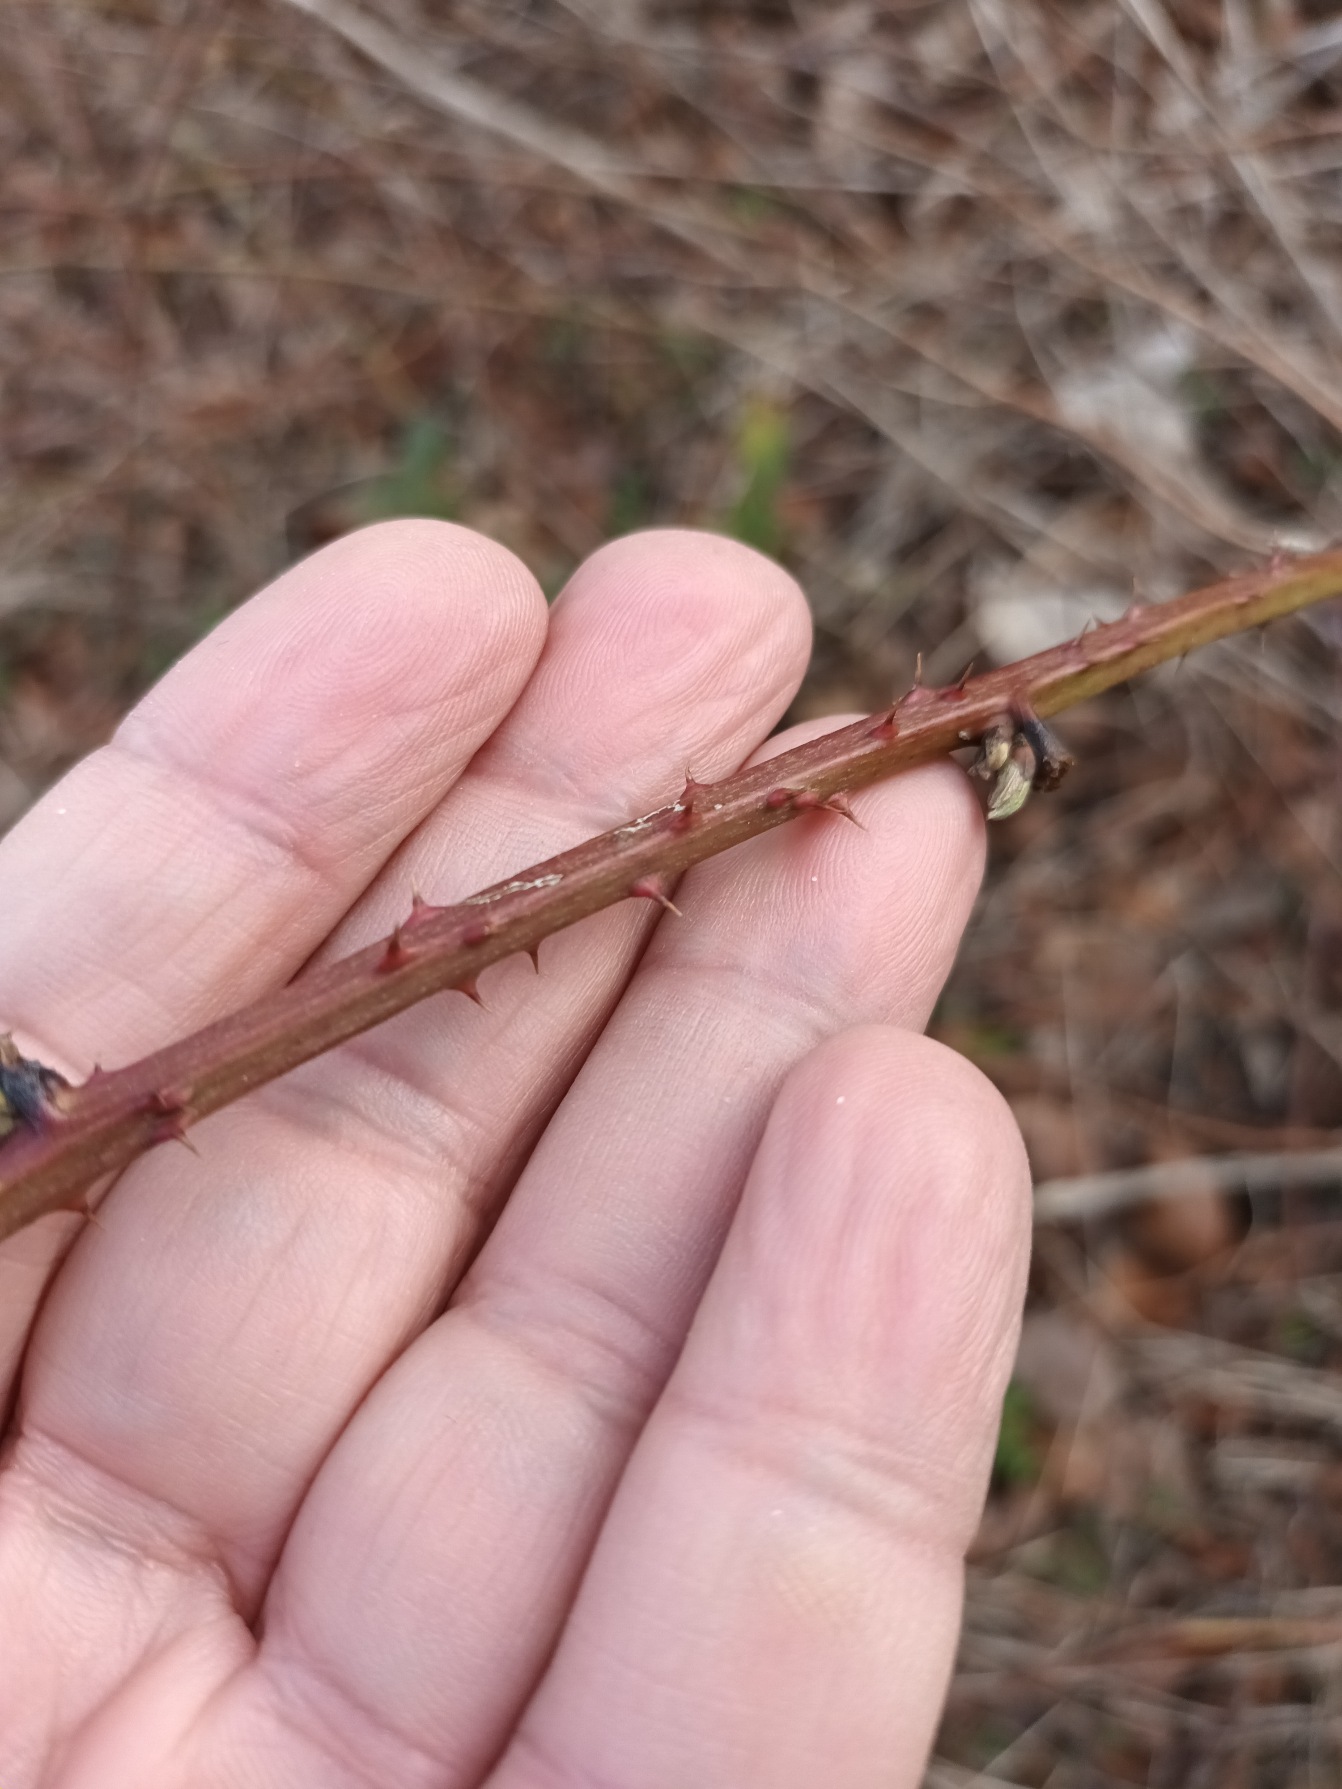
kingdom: Plantae
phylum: Tracheophyta
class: Magnoliopsida
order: Rosales
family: Rosaceae
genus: Rubus
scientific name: Rubus decurrentispinus
